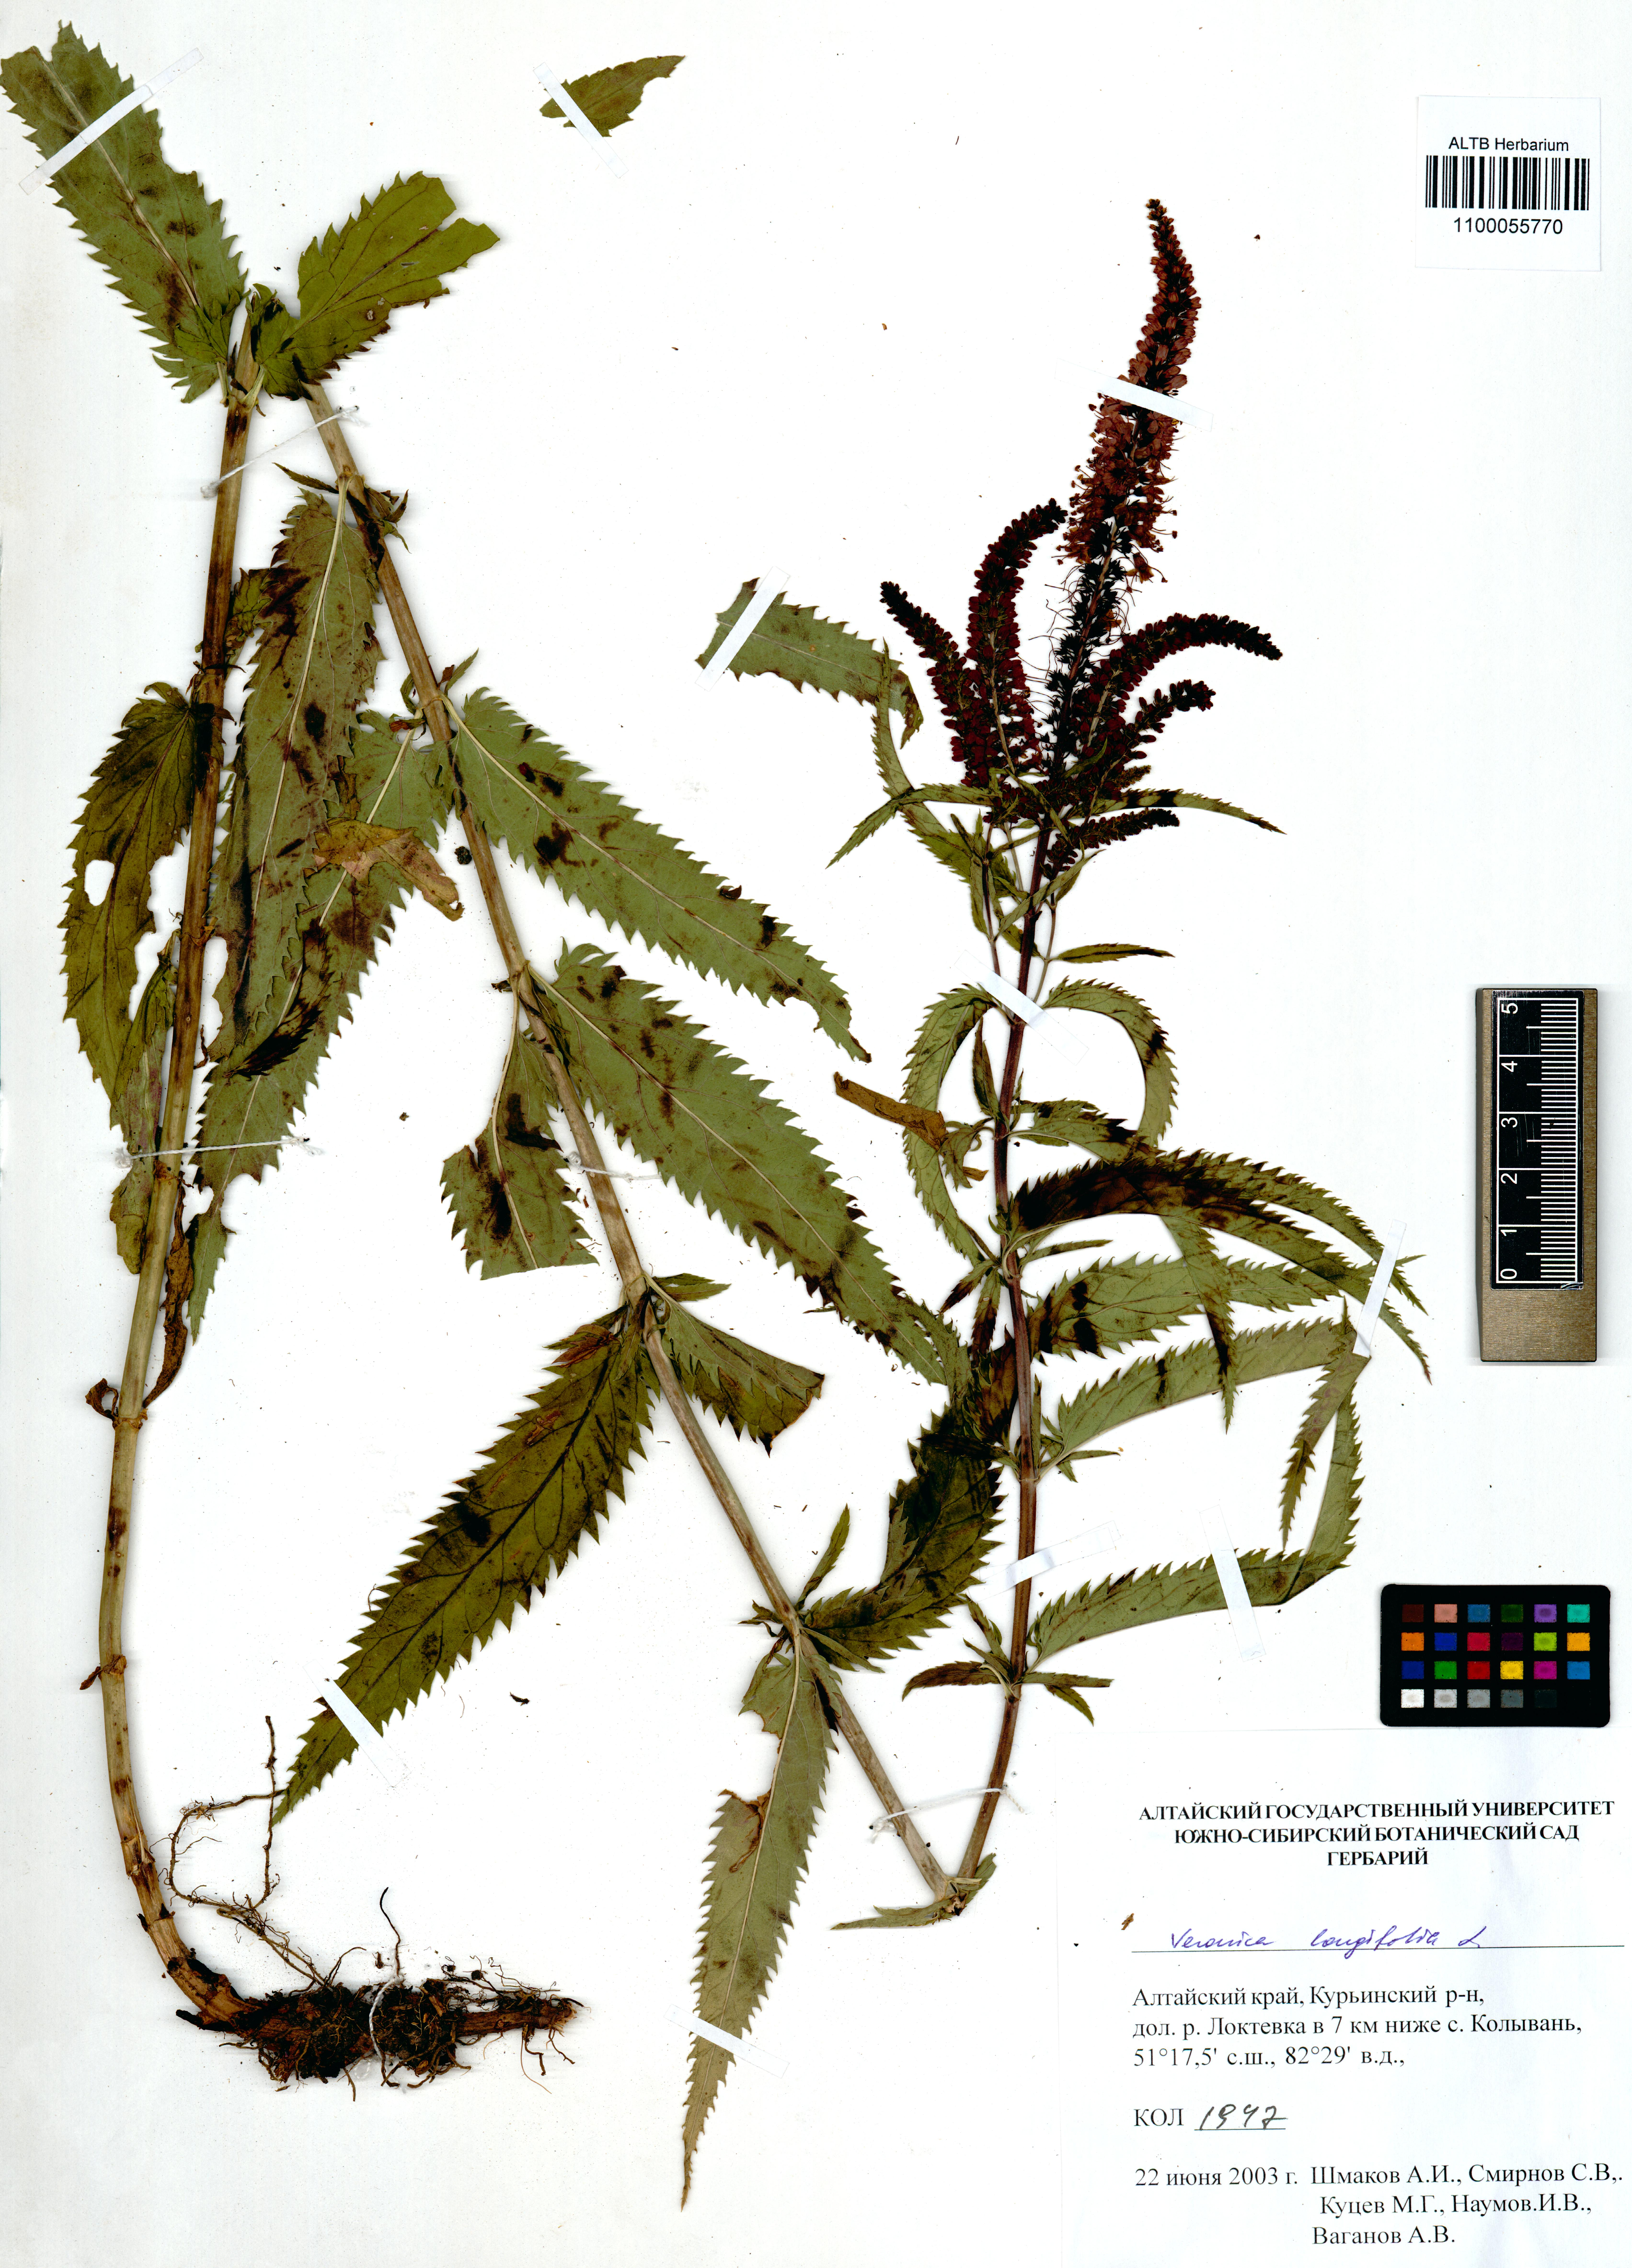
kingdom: Plantae
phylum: Tracheophyta
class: Magnoliopsida
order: Lamiales
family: Plantaginaceae
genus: Veronica
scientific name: Veronica longifolia
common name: Garden speedwell
